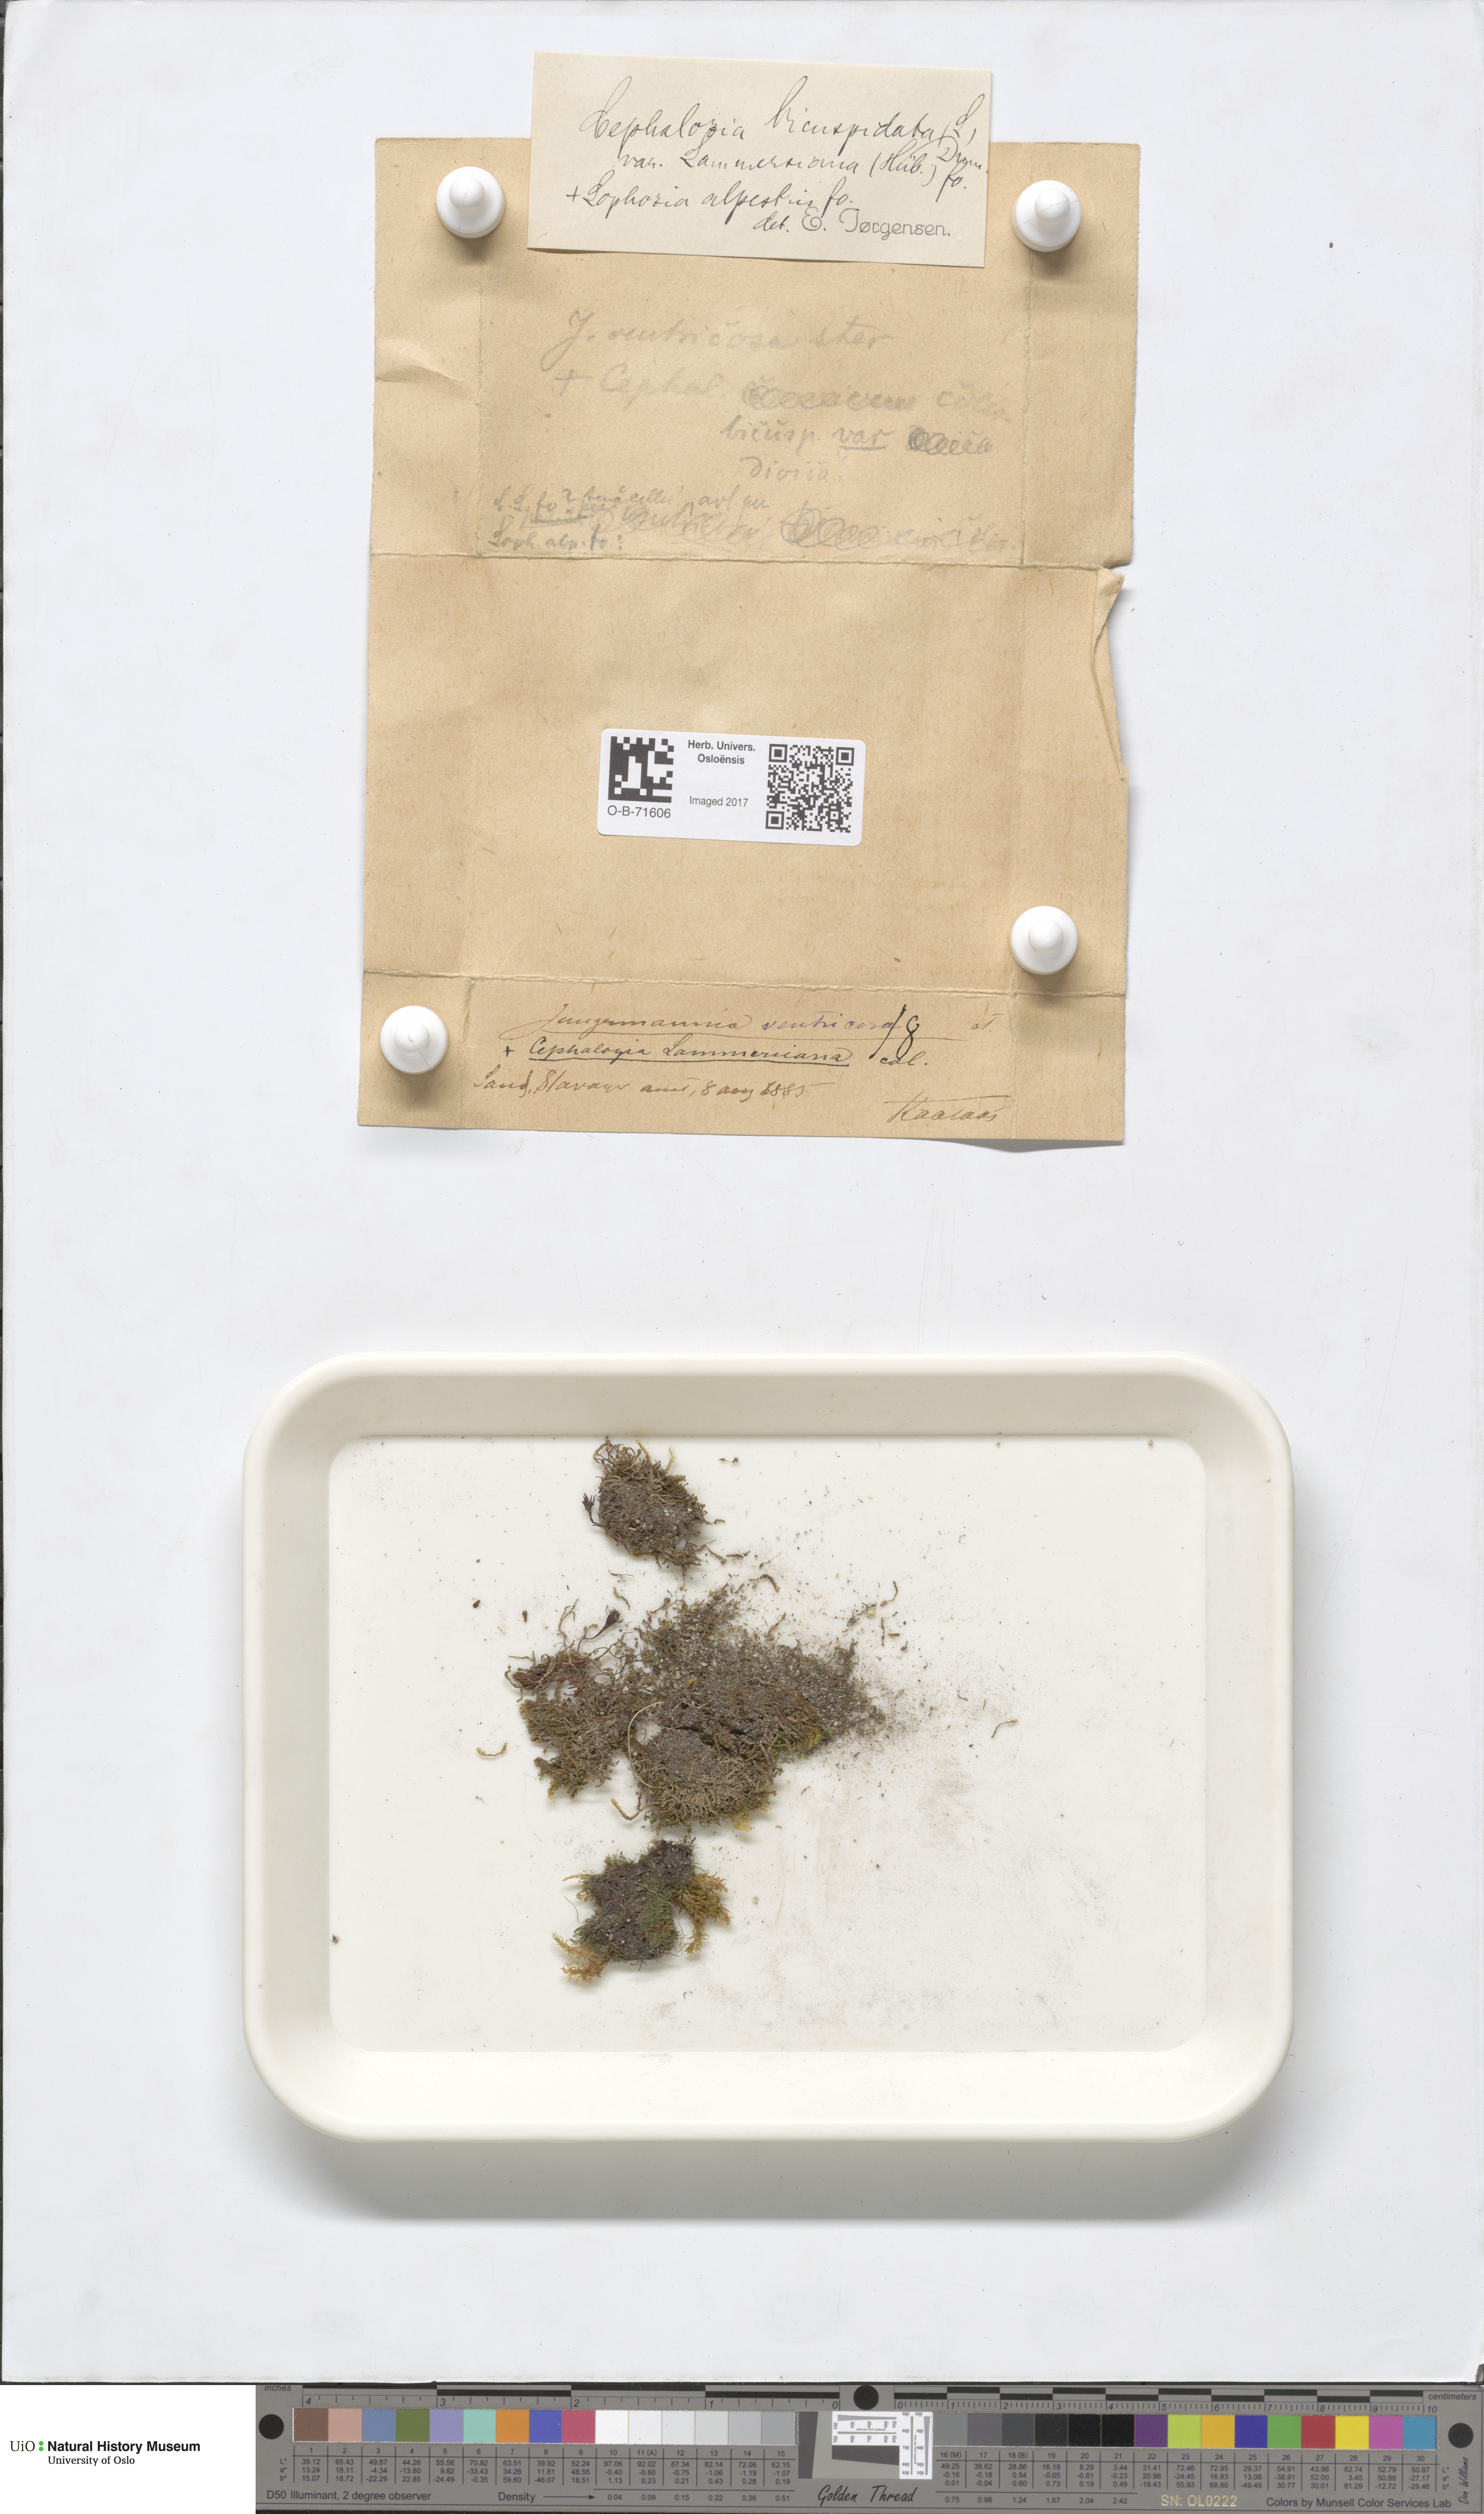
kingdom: Plantae
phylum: Marchantiophyta
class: Jungermanniopsida
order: Jungermanniales
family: Cephaloziaceae
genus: Cephalozia
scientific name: Cephalozia bicuspidata
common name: Two-horned pincerwort
